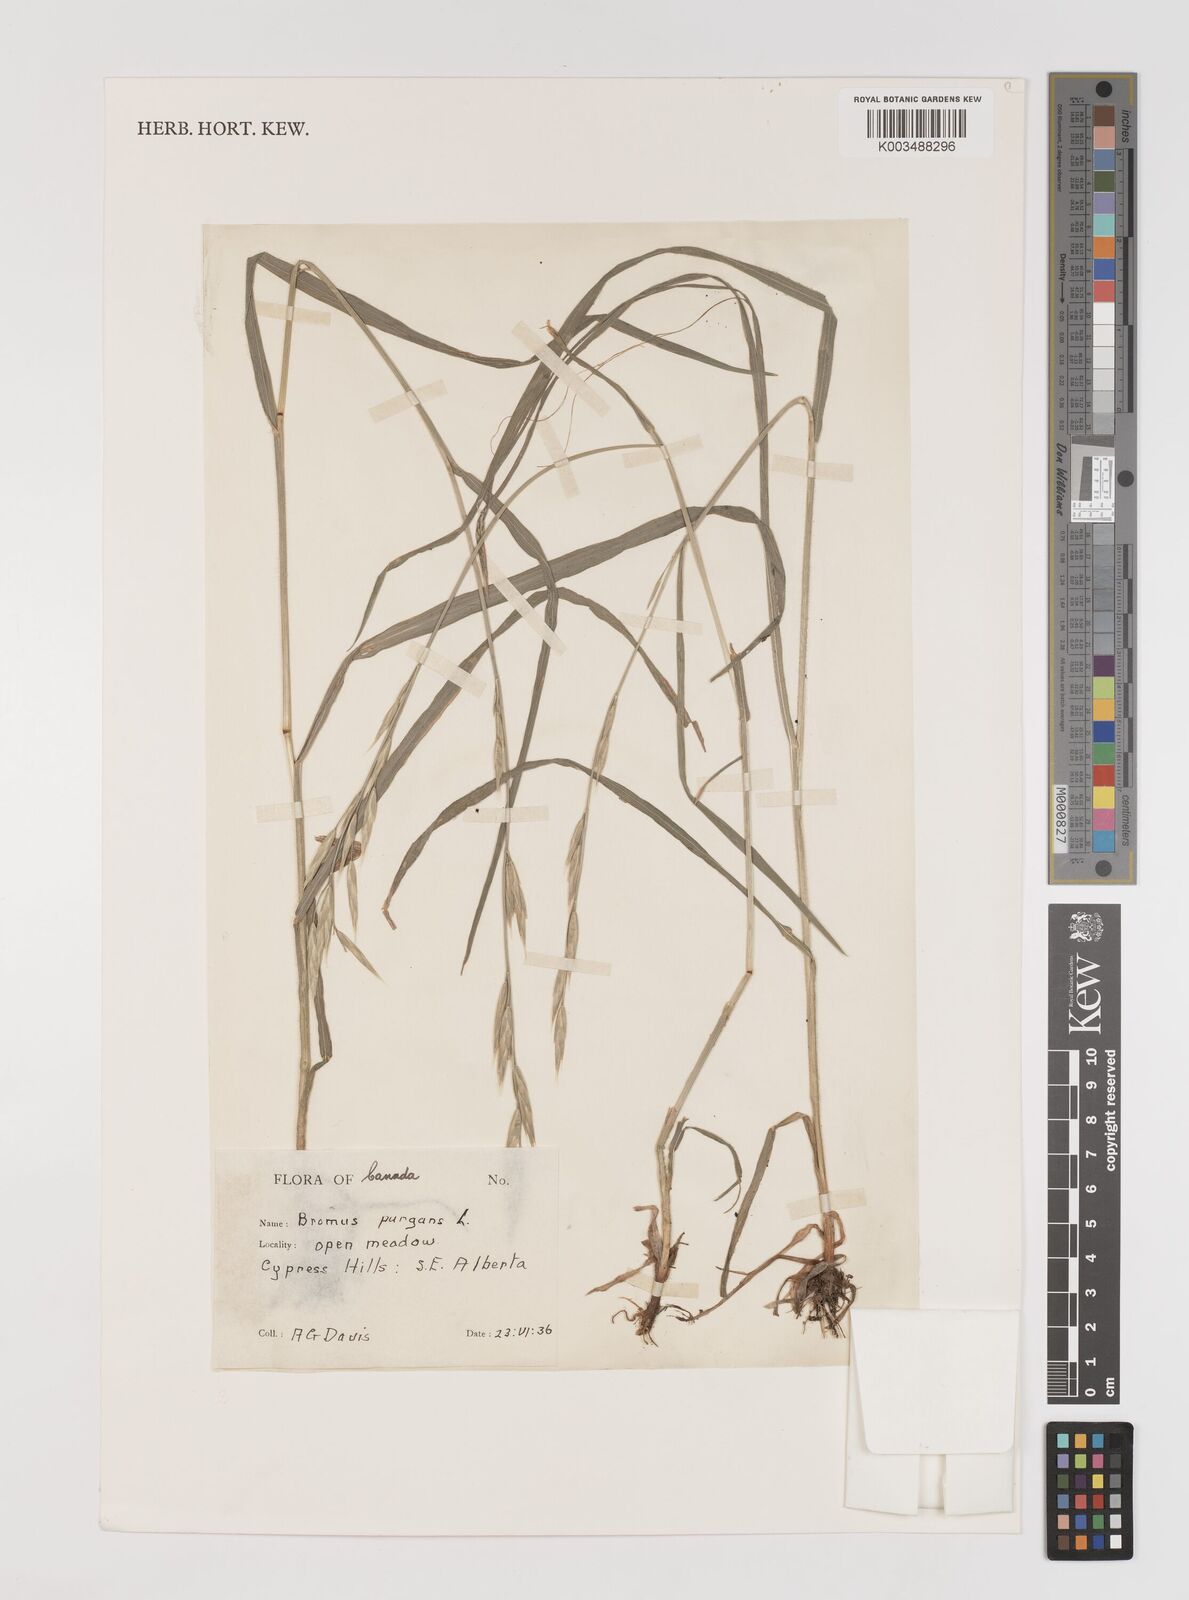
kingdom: Plantae
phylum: Tracheophyta
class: Liliopsida
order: Poales
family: Poaceae
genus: Bromus
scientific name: Bromus pubescens
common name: Hairy wood brome grass
